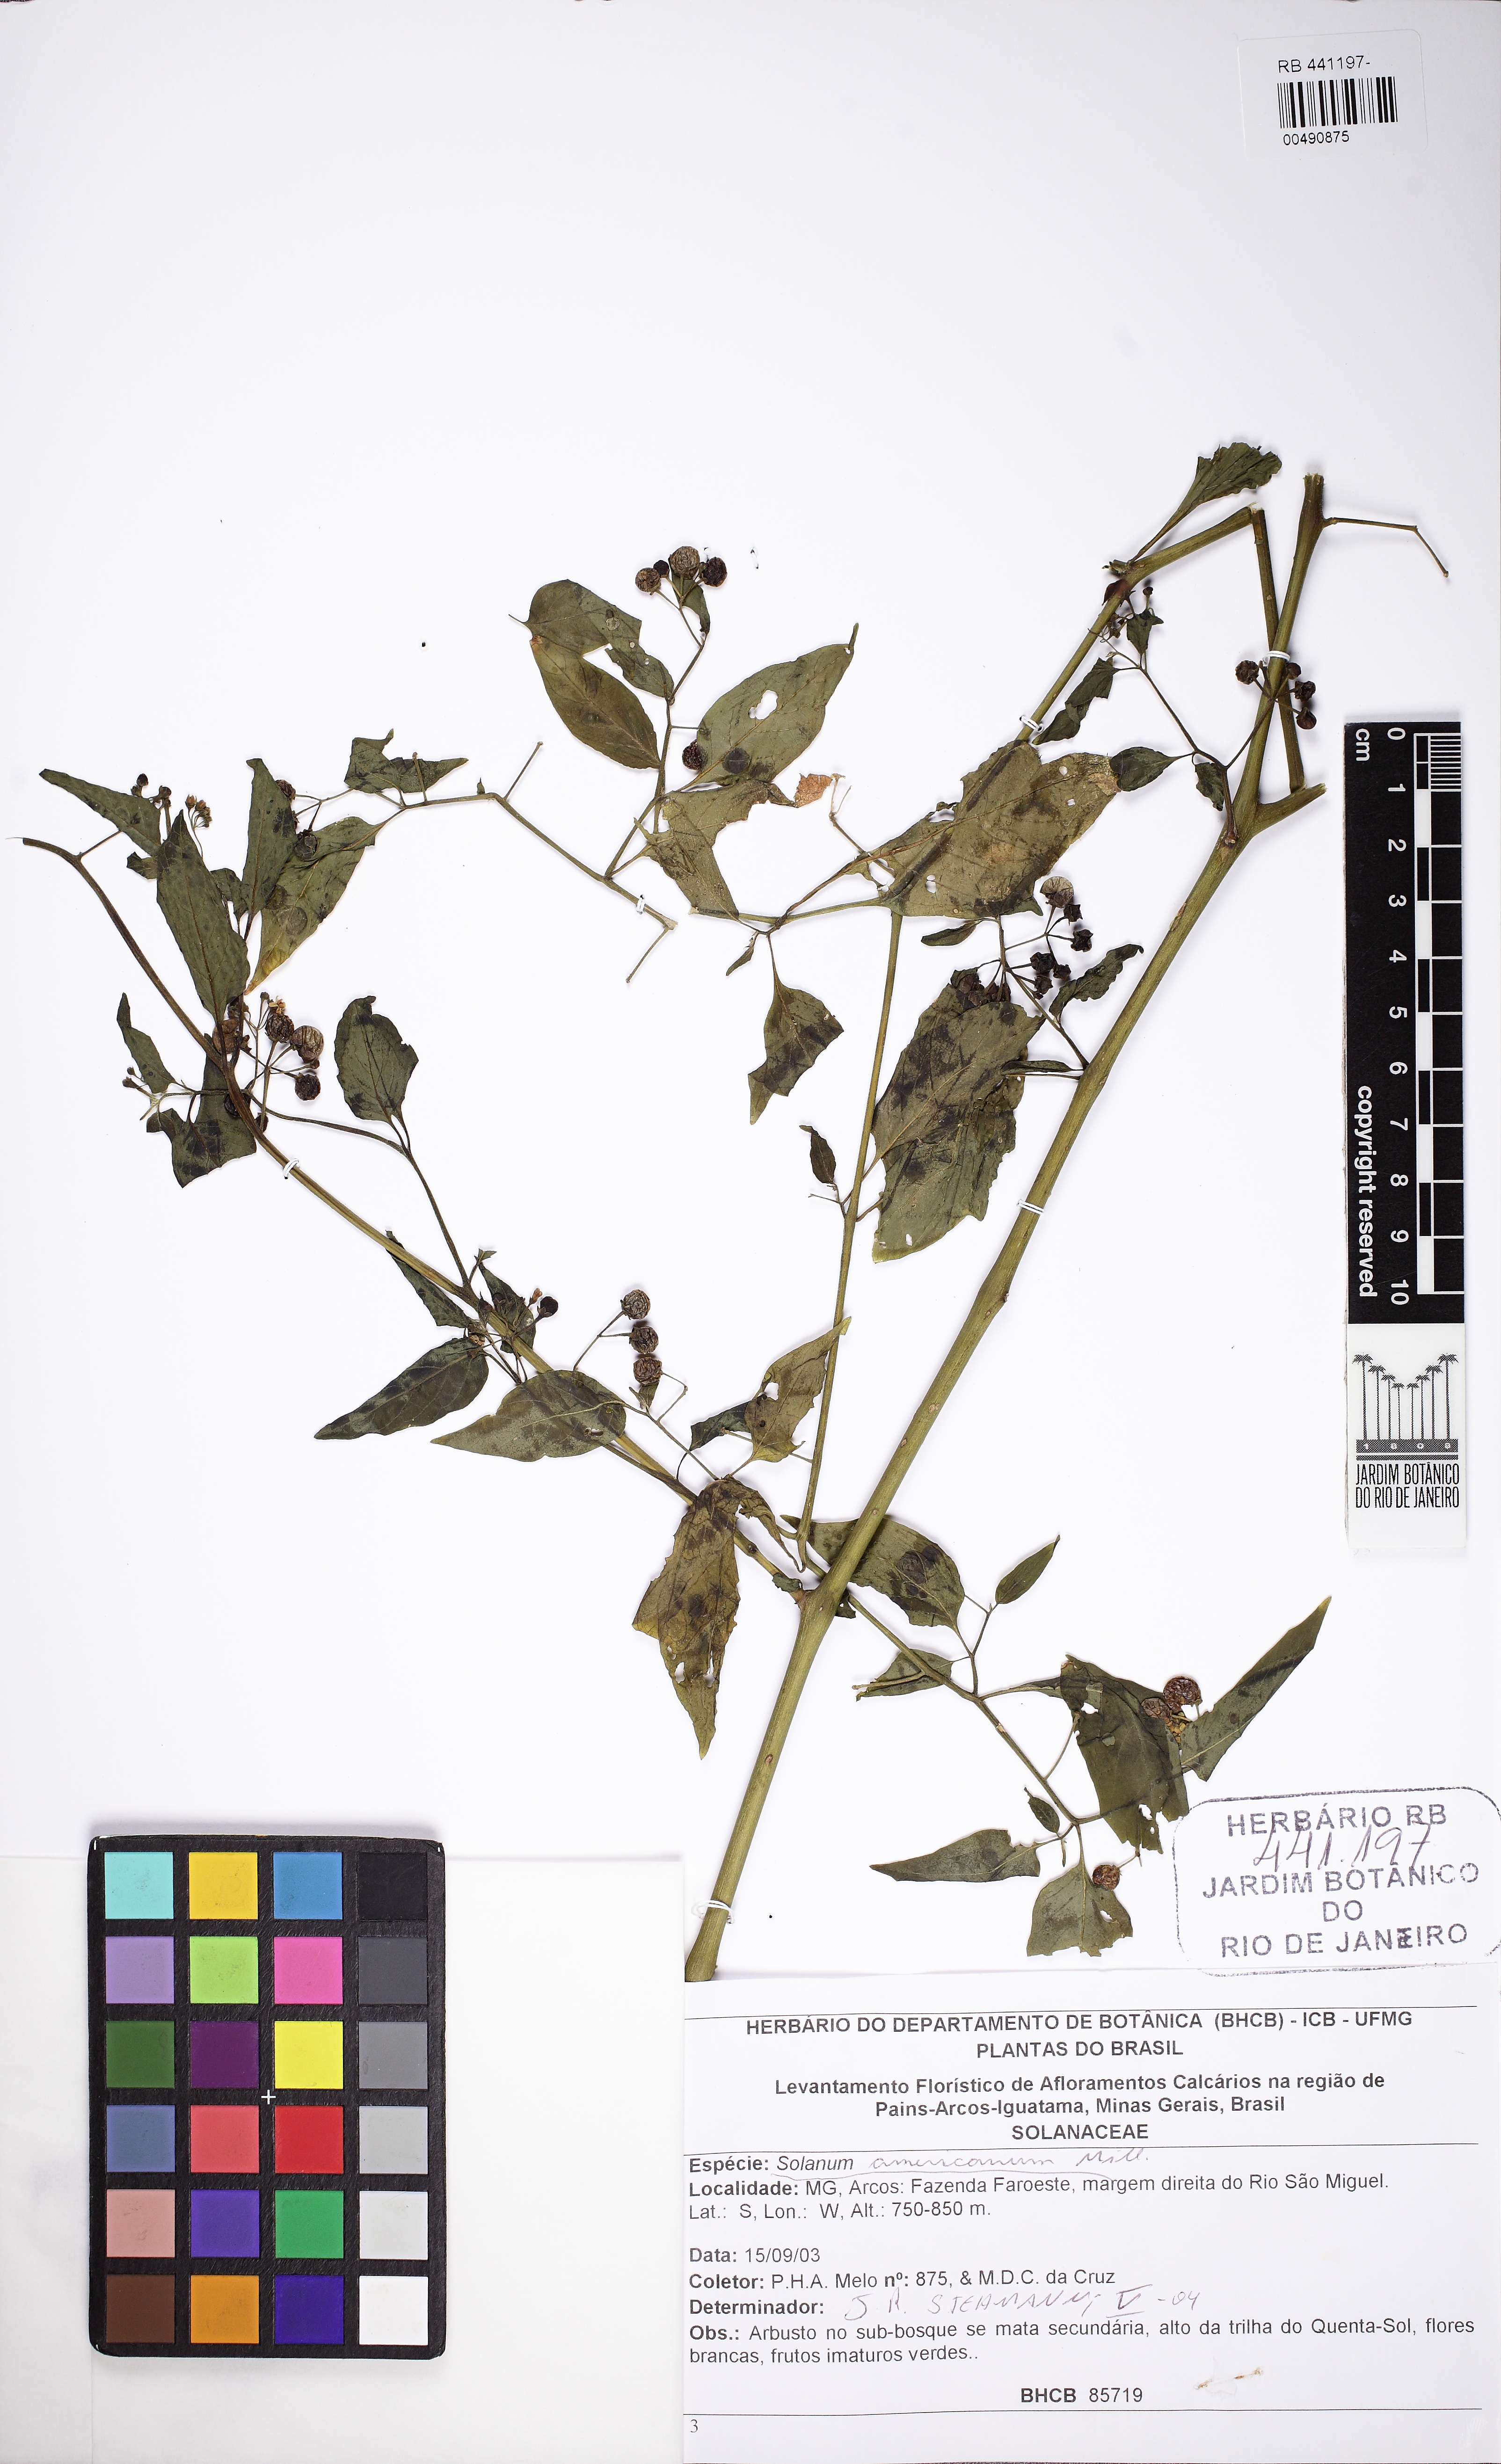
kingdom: Plantae
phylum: Tracheophyta
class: Magnoliopsida
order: Solanales
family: Solanaceae
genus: Solanum
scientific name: Solanum americanum
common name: American black nightshade
